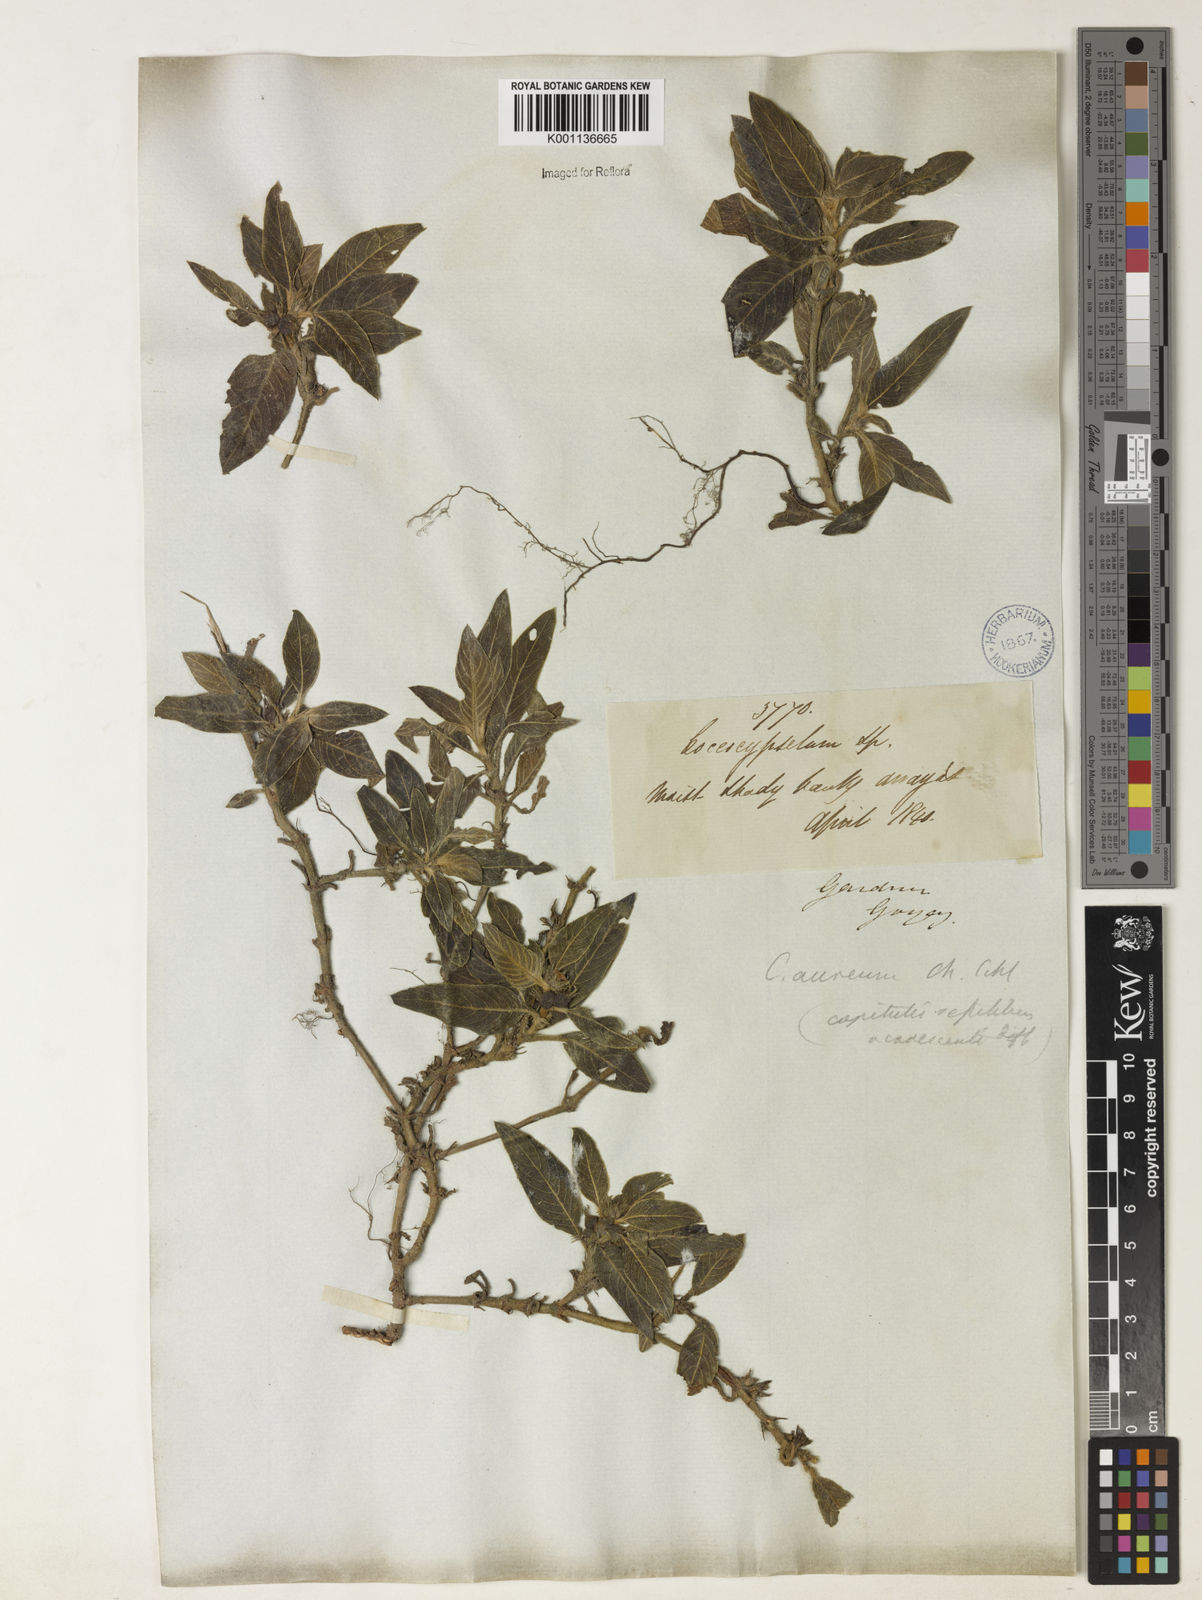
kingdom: Plantae
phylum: Tracheophyta
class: Magnoliopsida
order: Gentianales
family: Rubiaceae
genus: Coccocypselum
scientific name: Coccocypselum lanceolatum
